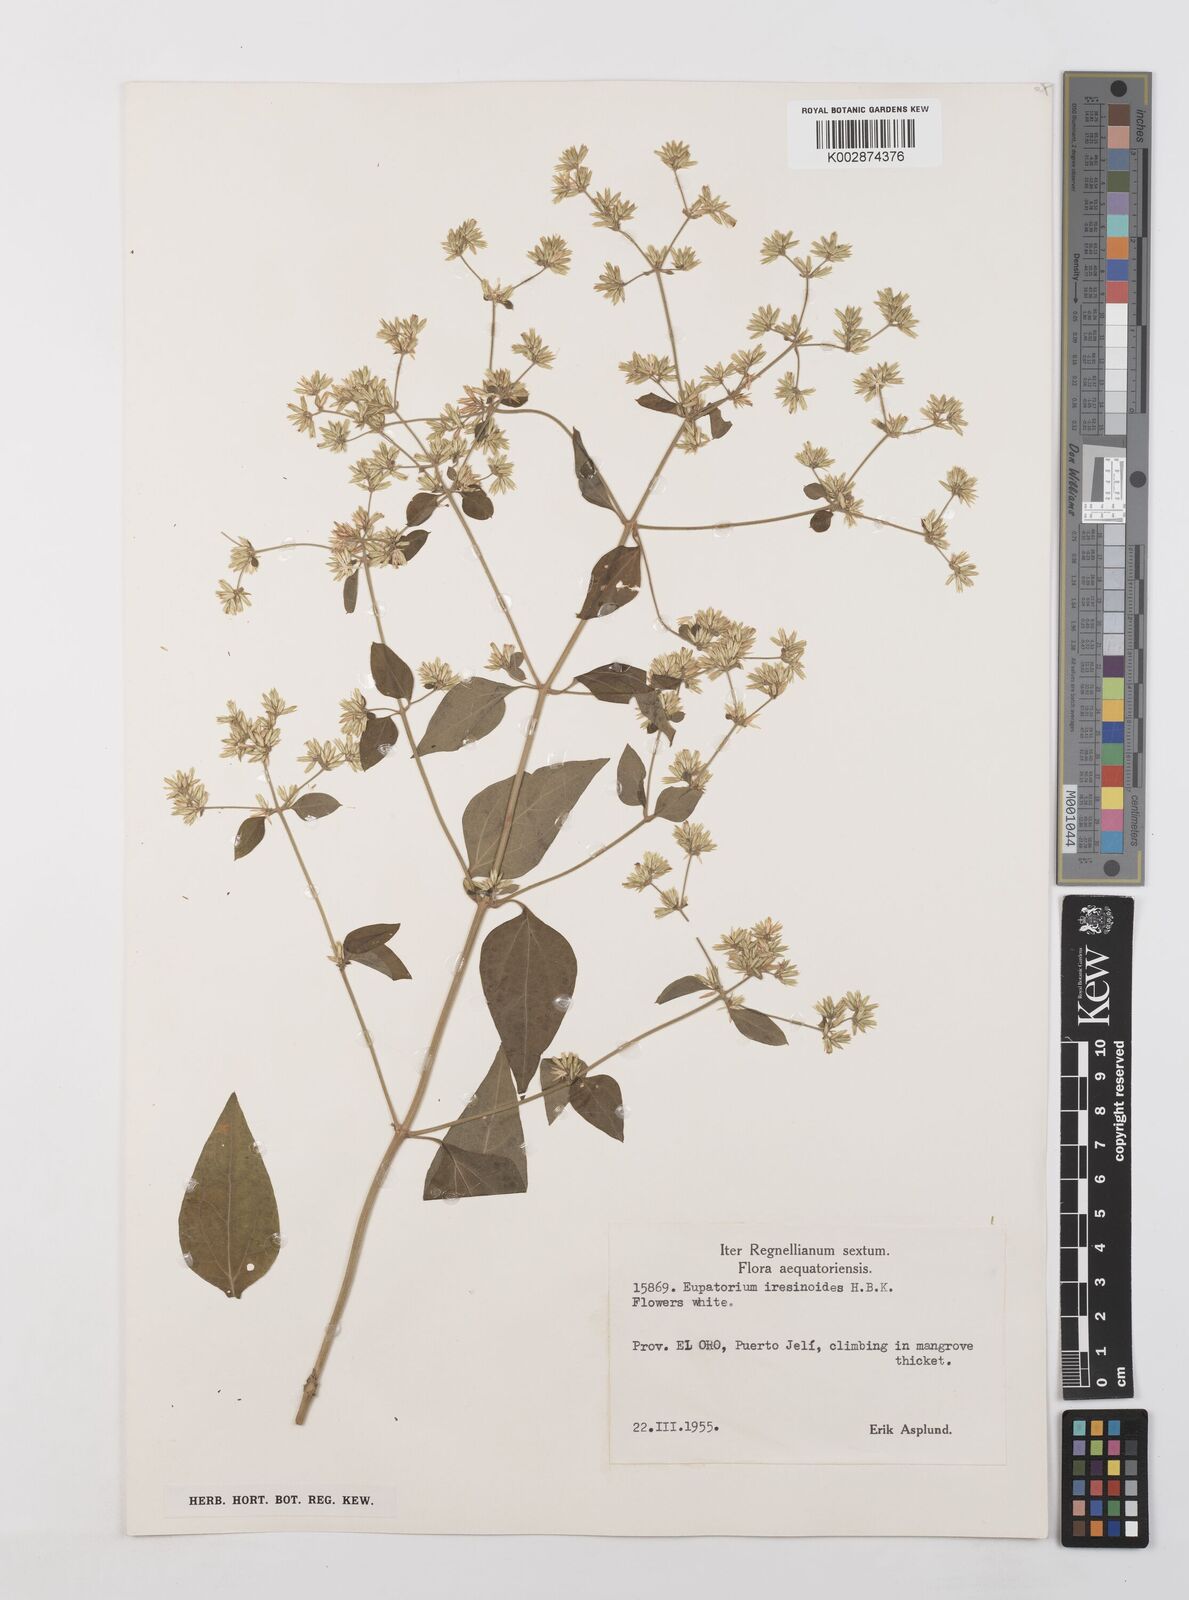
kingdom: Plantae
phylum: Tracheophyta
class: Magnoliopsida
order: Asterales
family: Asteraceae
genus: Condylidium
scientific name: Condylidium iresinoides
